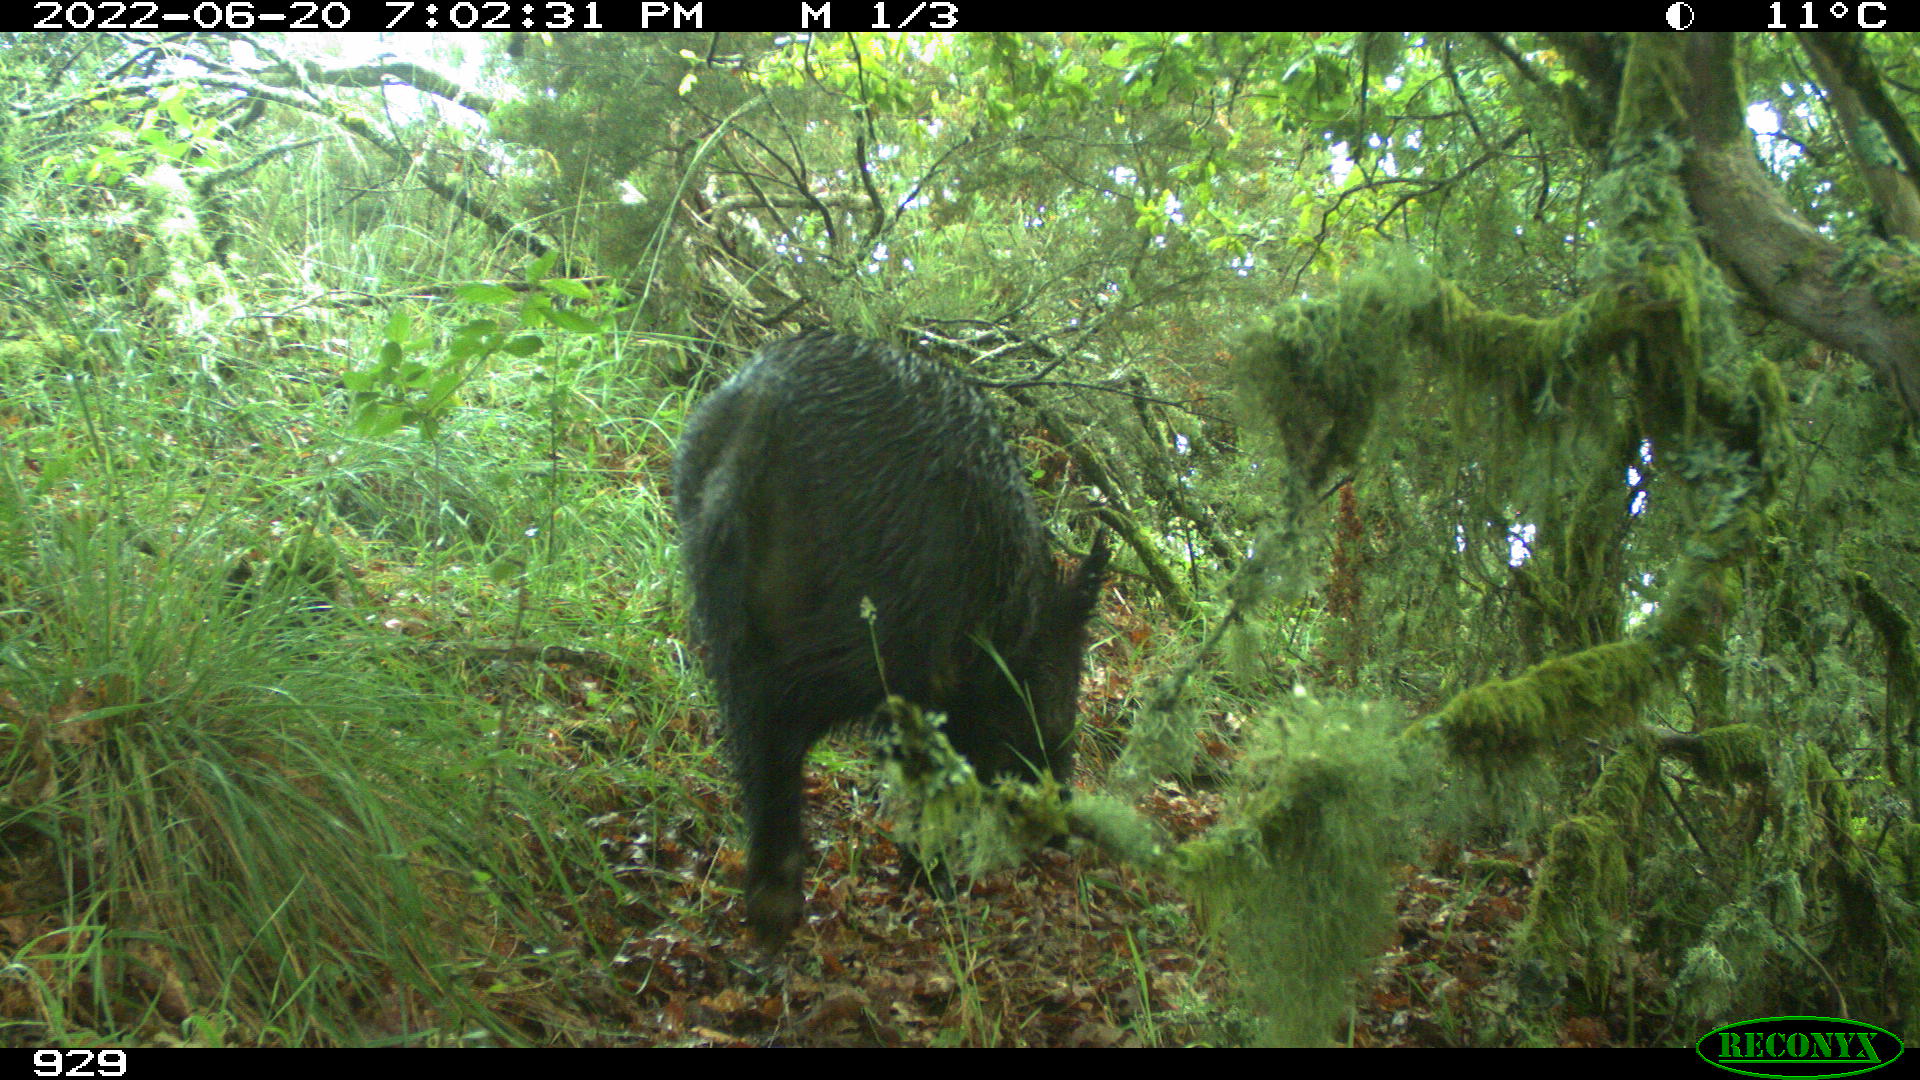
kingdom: Animalia
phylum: Chordata
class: Mammalia
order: Artiodactyla
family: Suidae
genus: Sus
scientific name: Sus scrofa
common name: Wild boar
